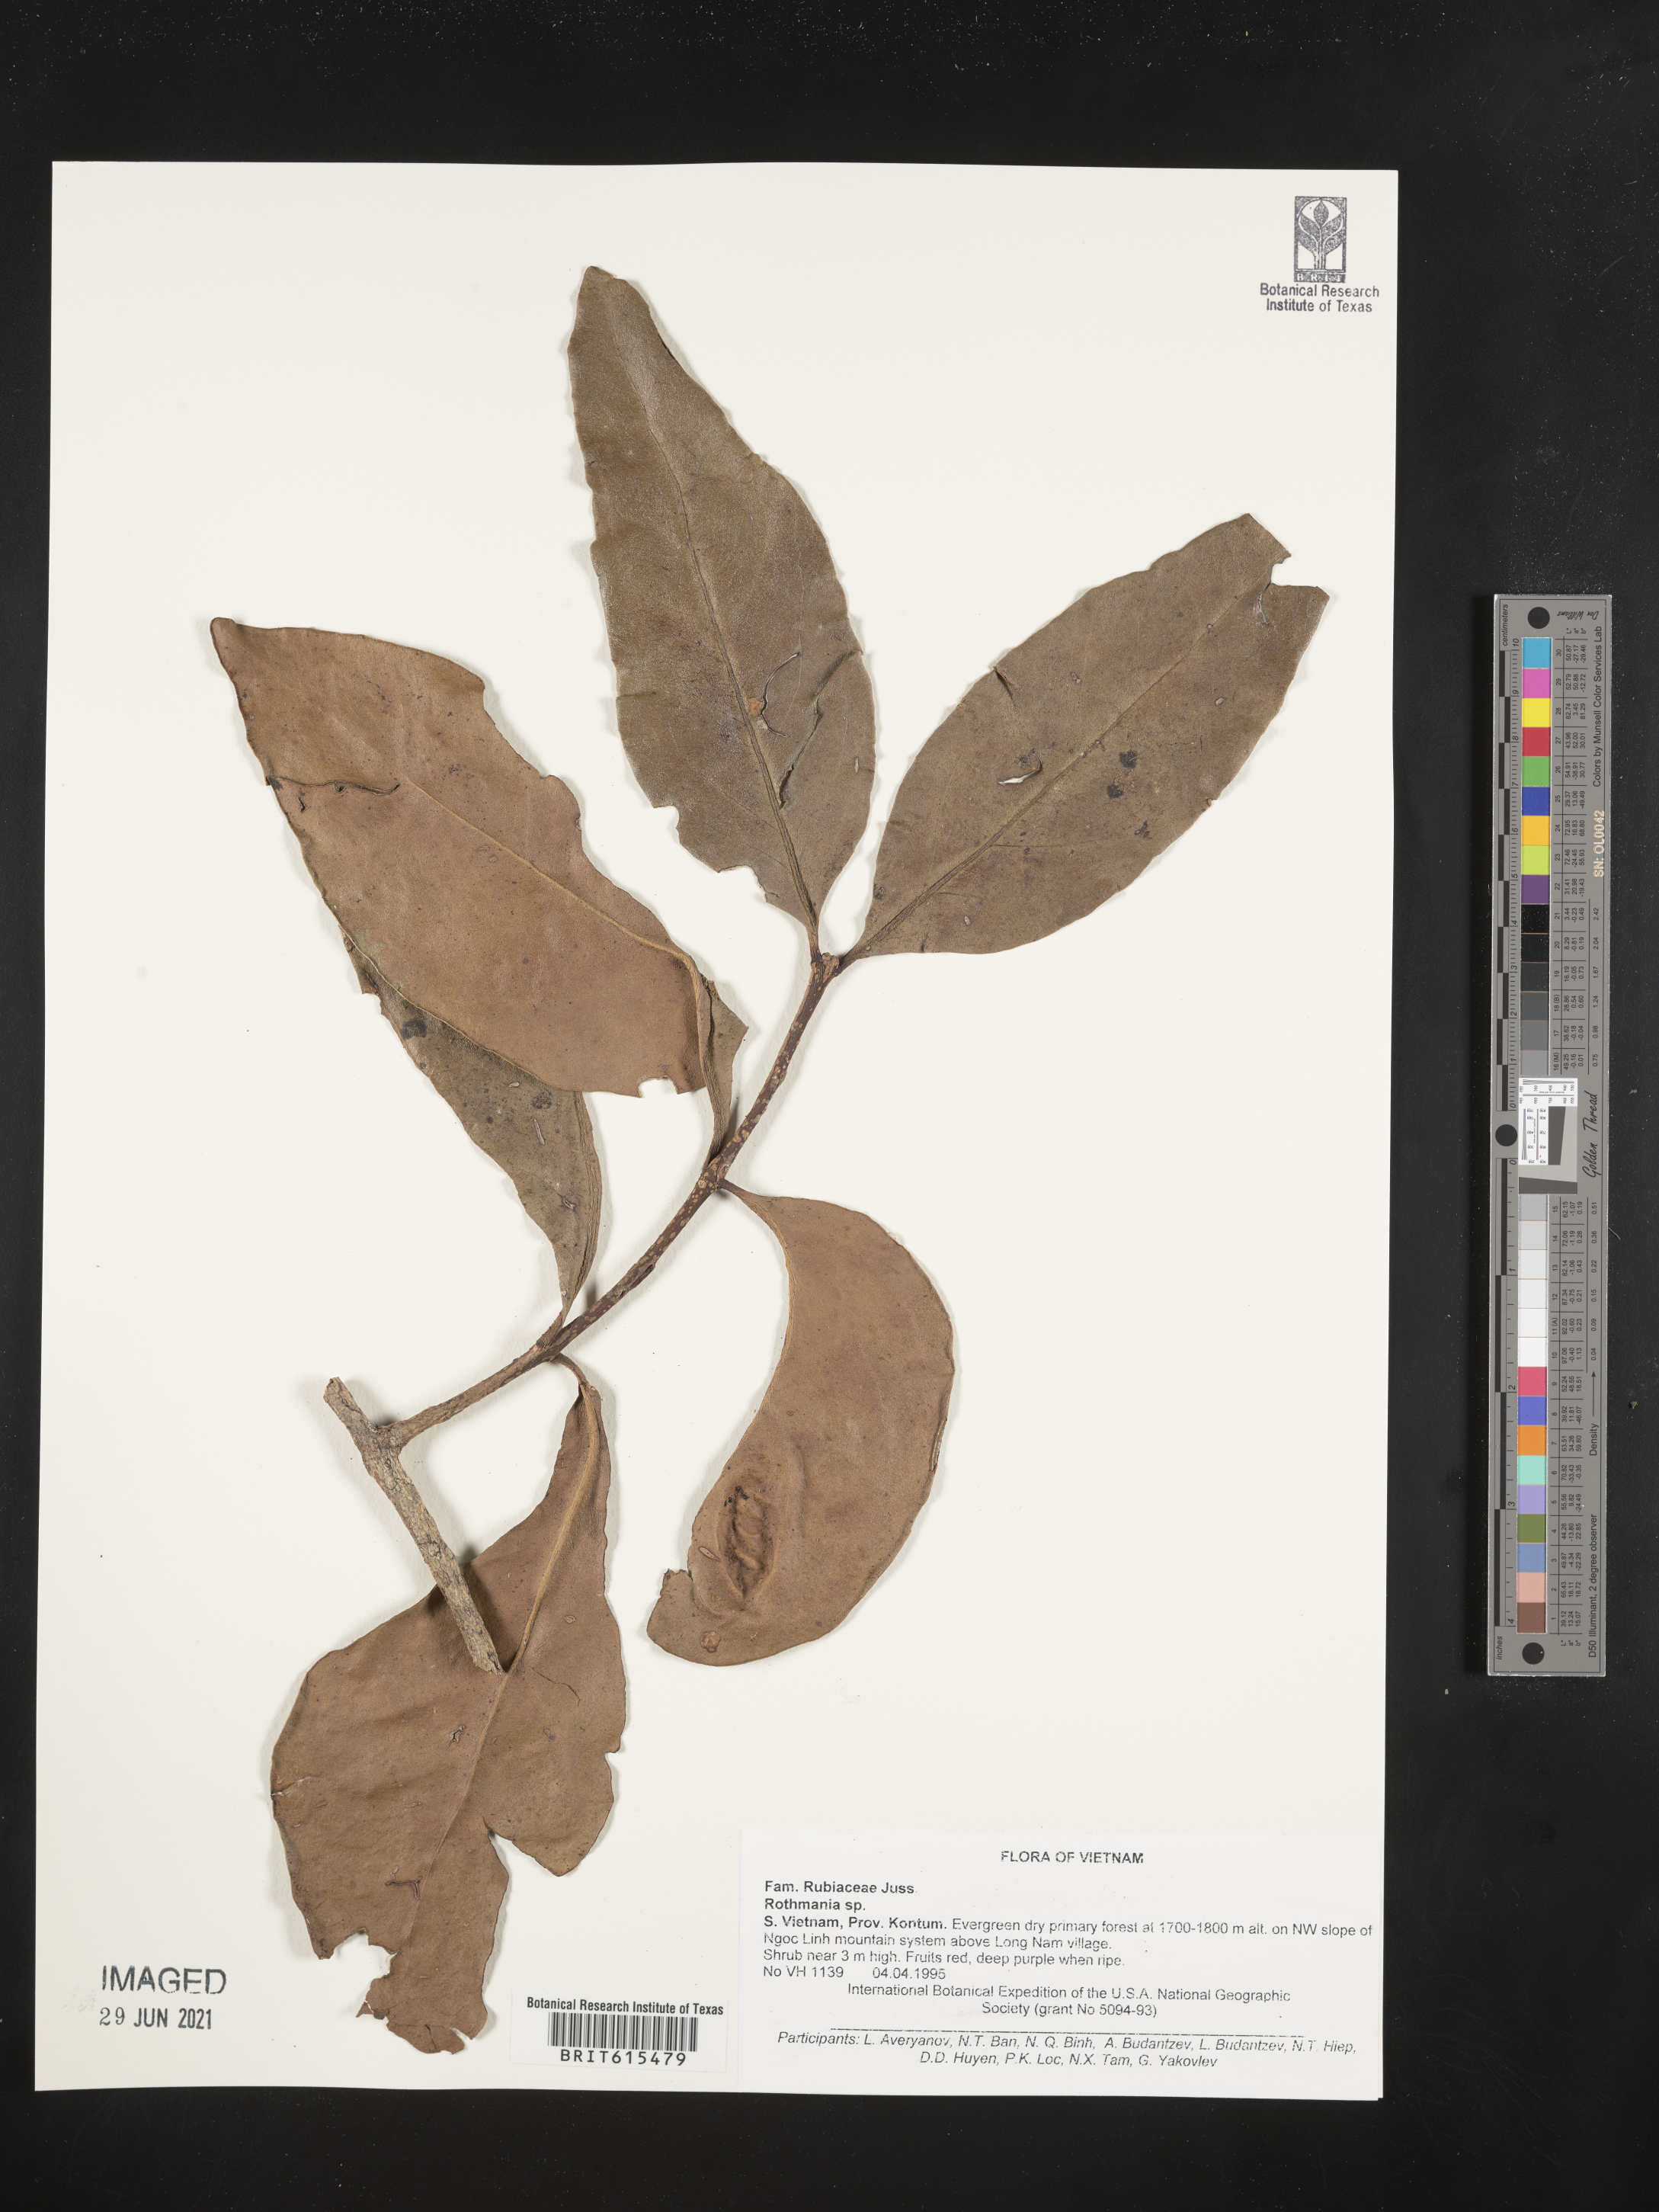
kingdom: Plantae
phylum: Tracheophyta
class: Magnoliopsida
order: Gentianales
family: Rubiaceae
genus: Rothmannia
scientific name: Rothmannia
